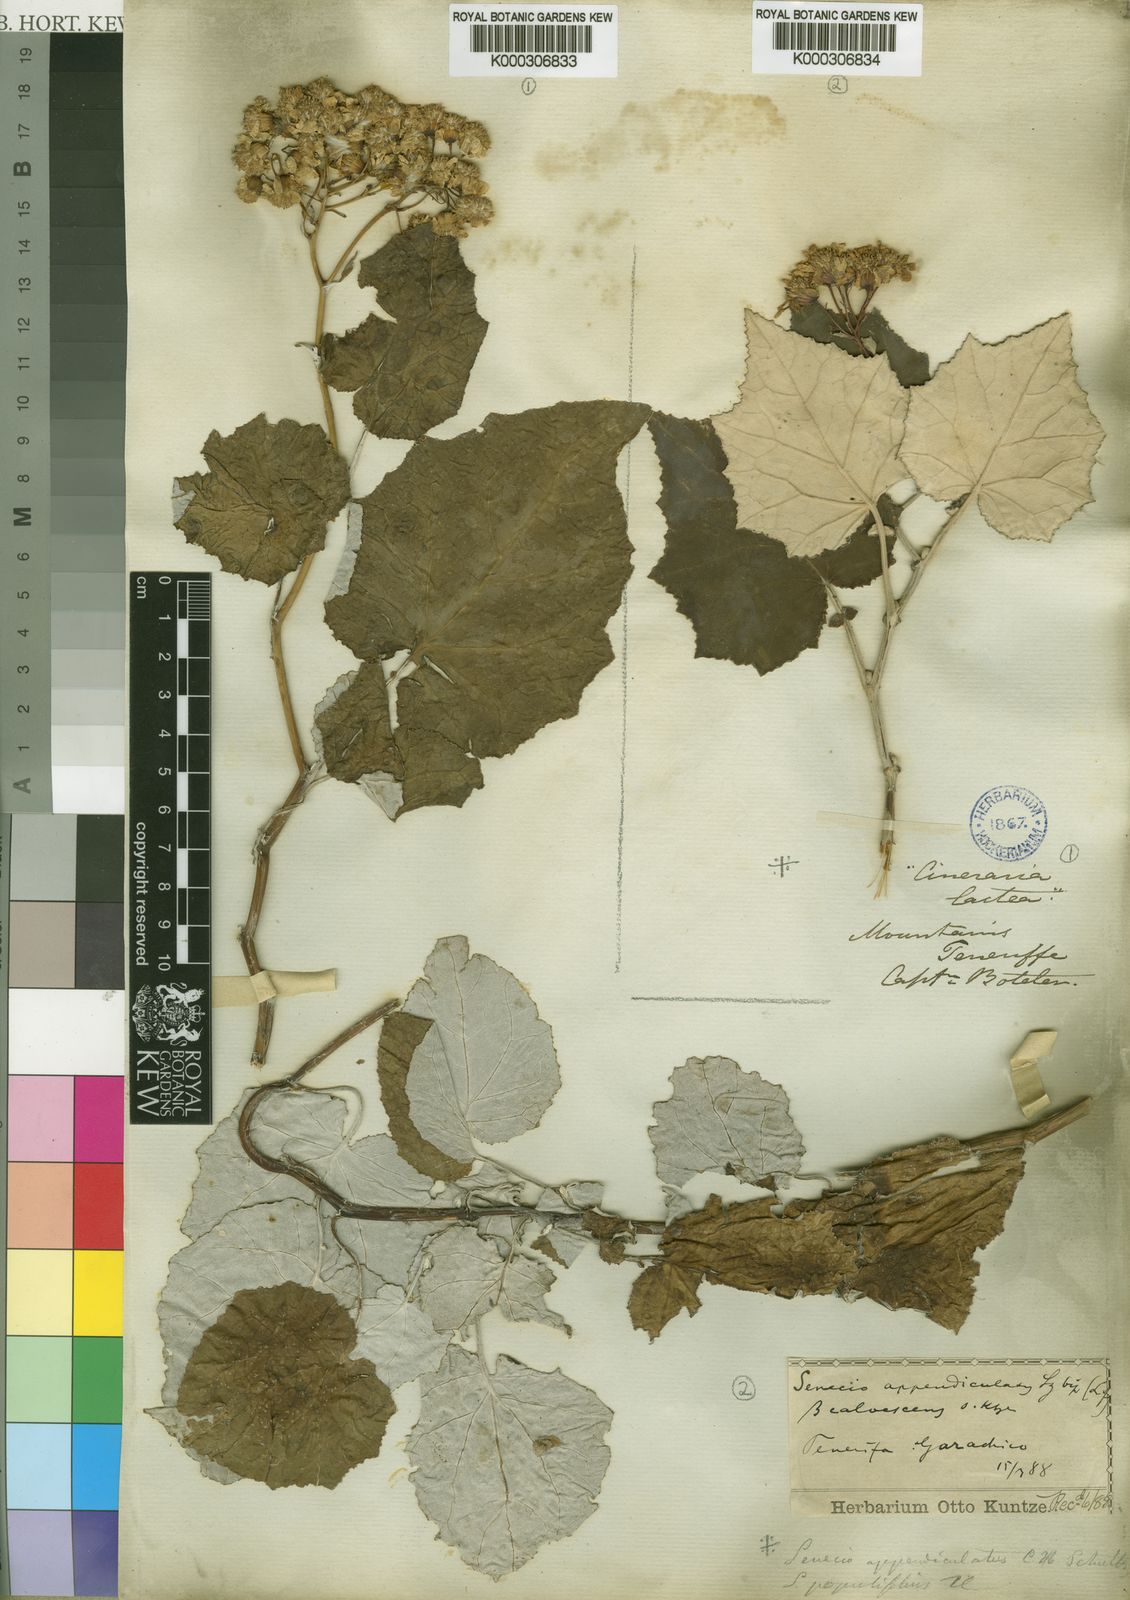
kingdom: Plantae
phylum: Tracheophyta
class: Magnoliopsida
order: Asterales
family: Asteraceae
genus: Pericallis
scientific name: Pericallis appendiculata
